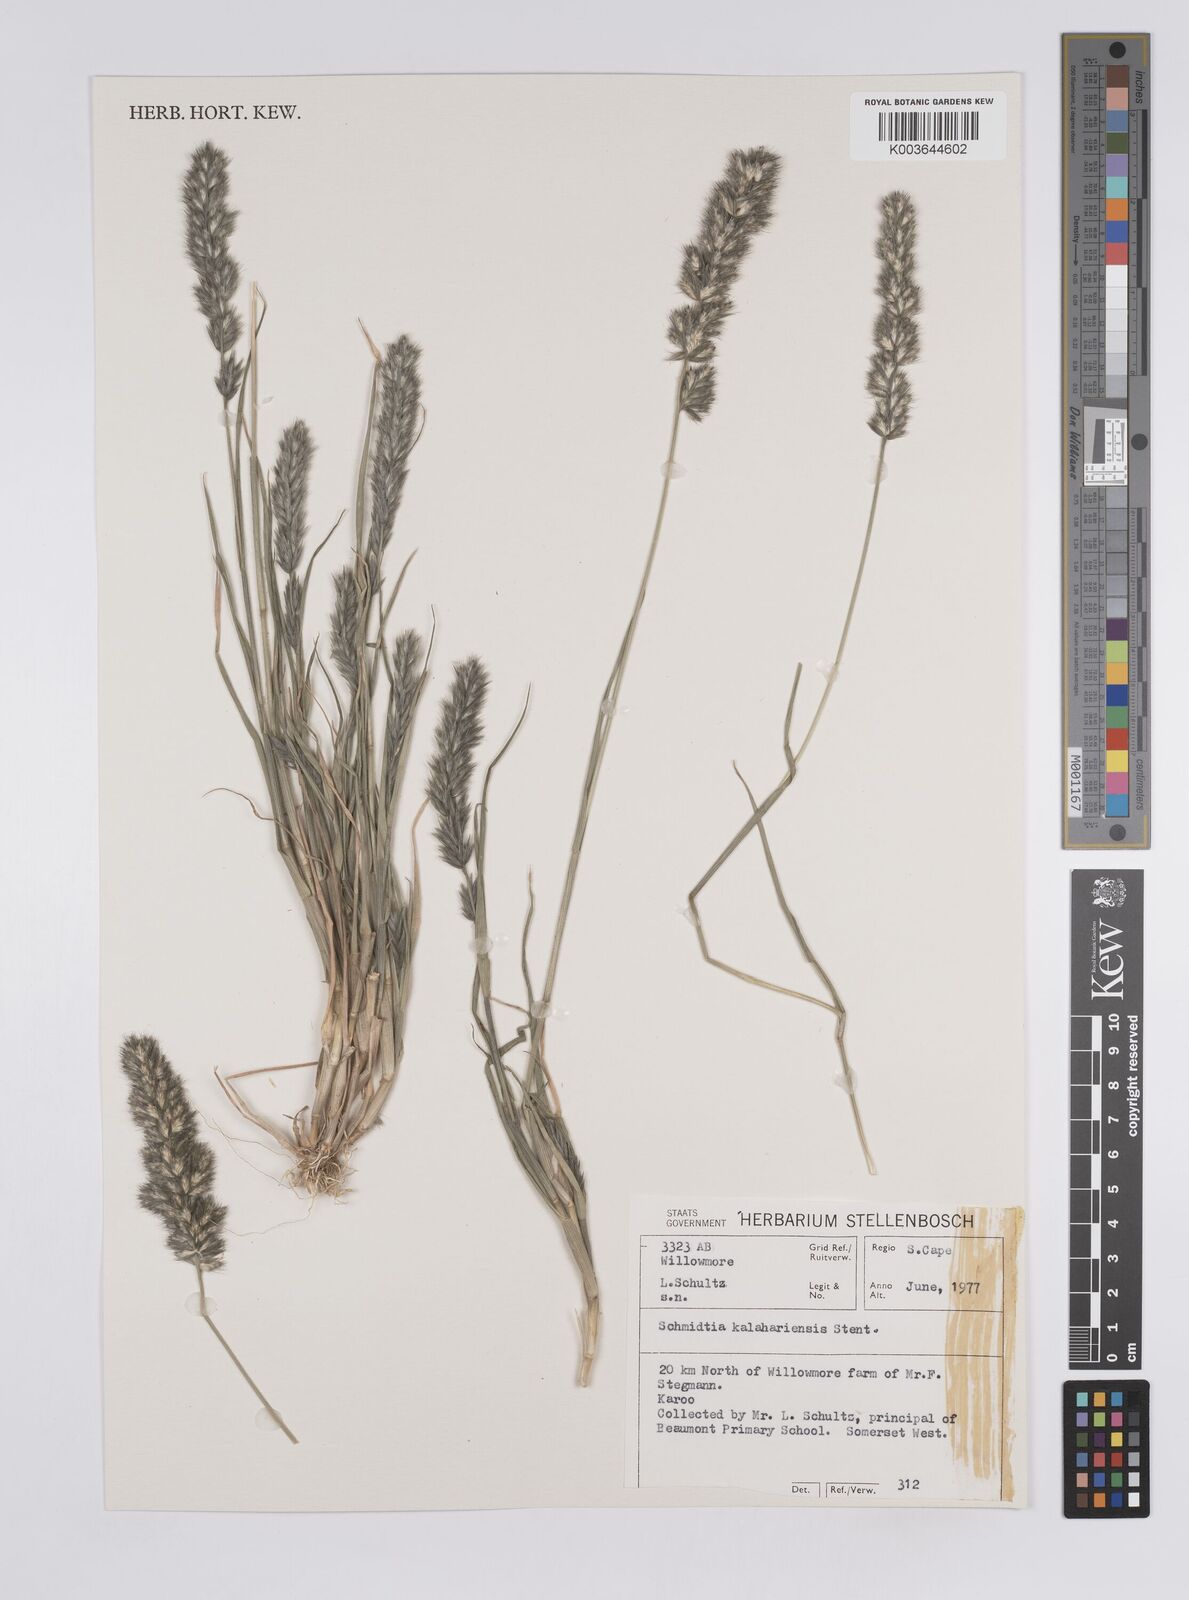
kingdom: Plantae
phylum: Tracheophyta
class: Liliopsida
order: Poales
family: Poaceae
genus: Schmidtia
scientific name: Schmidtia kalahariensis
